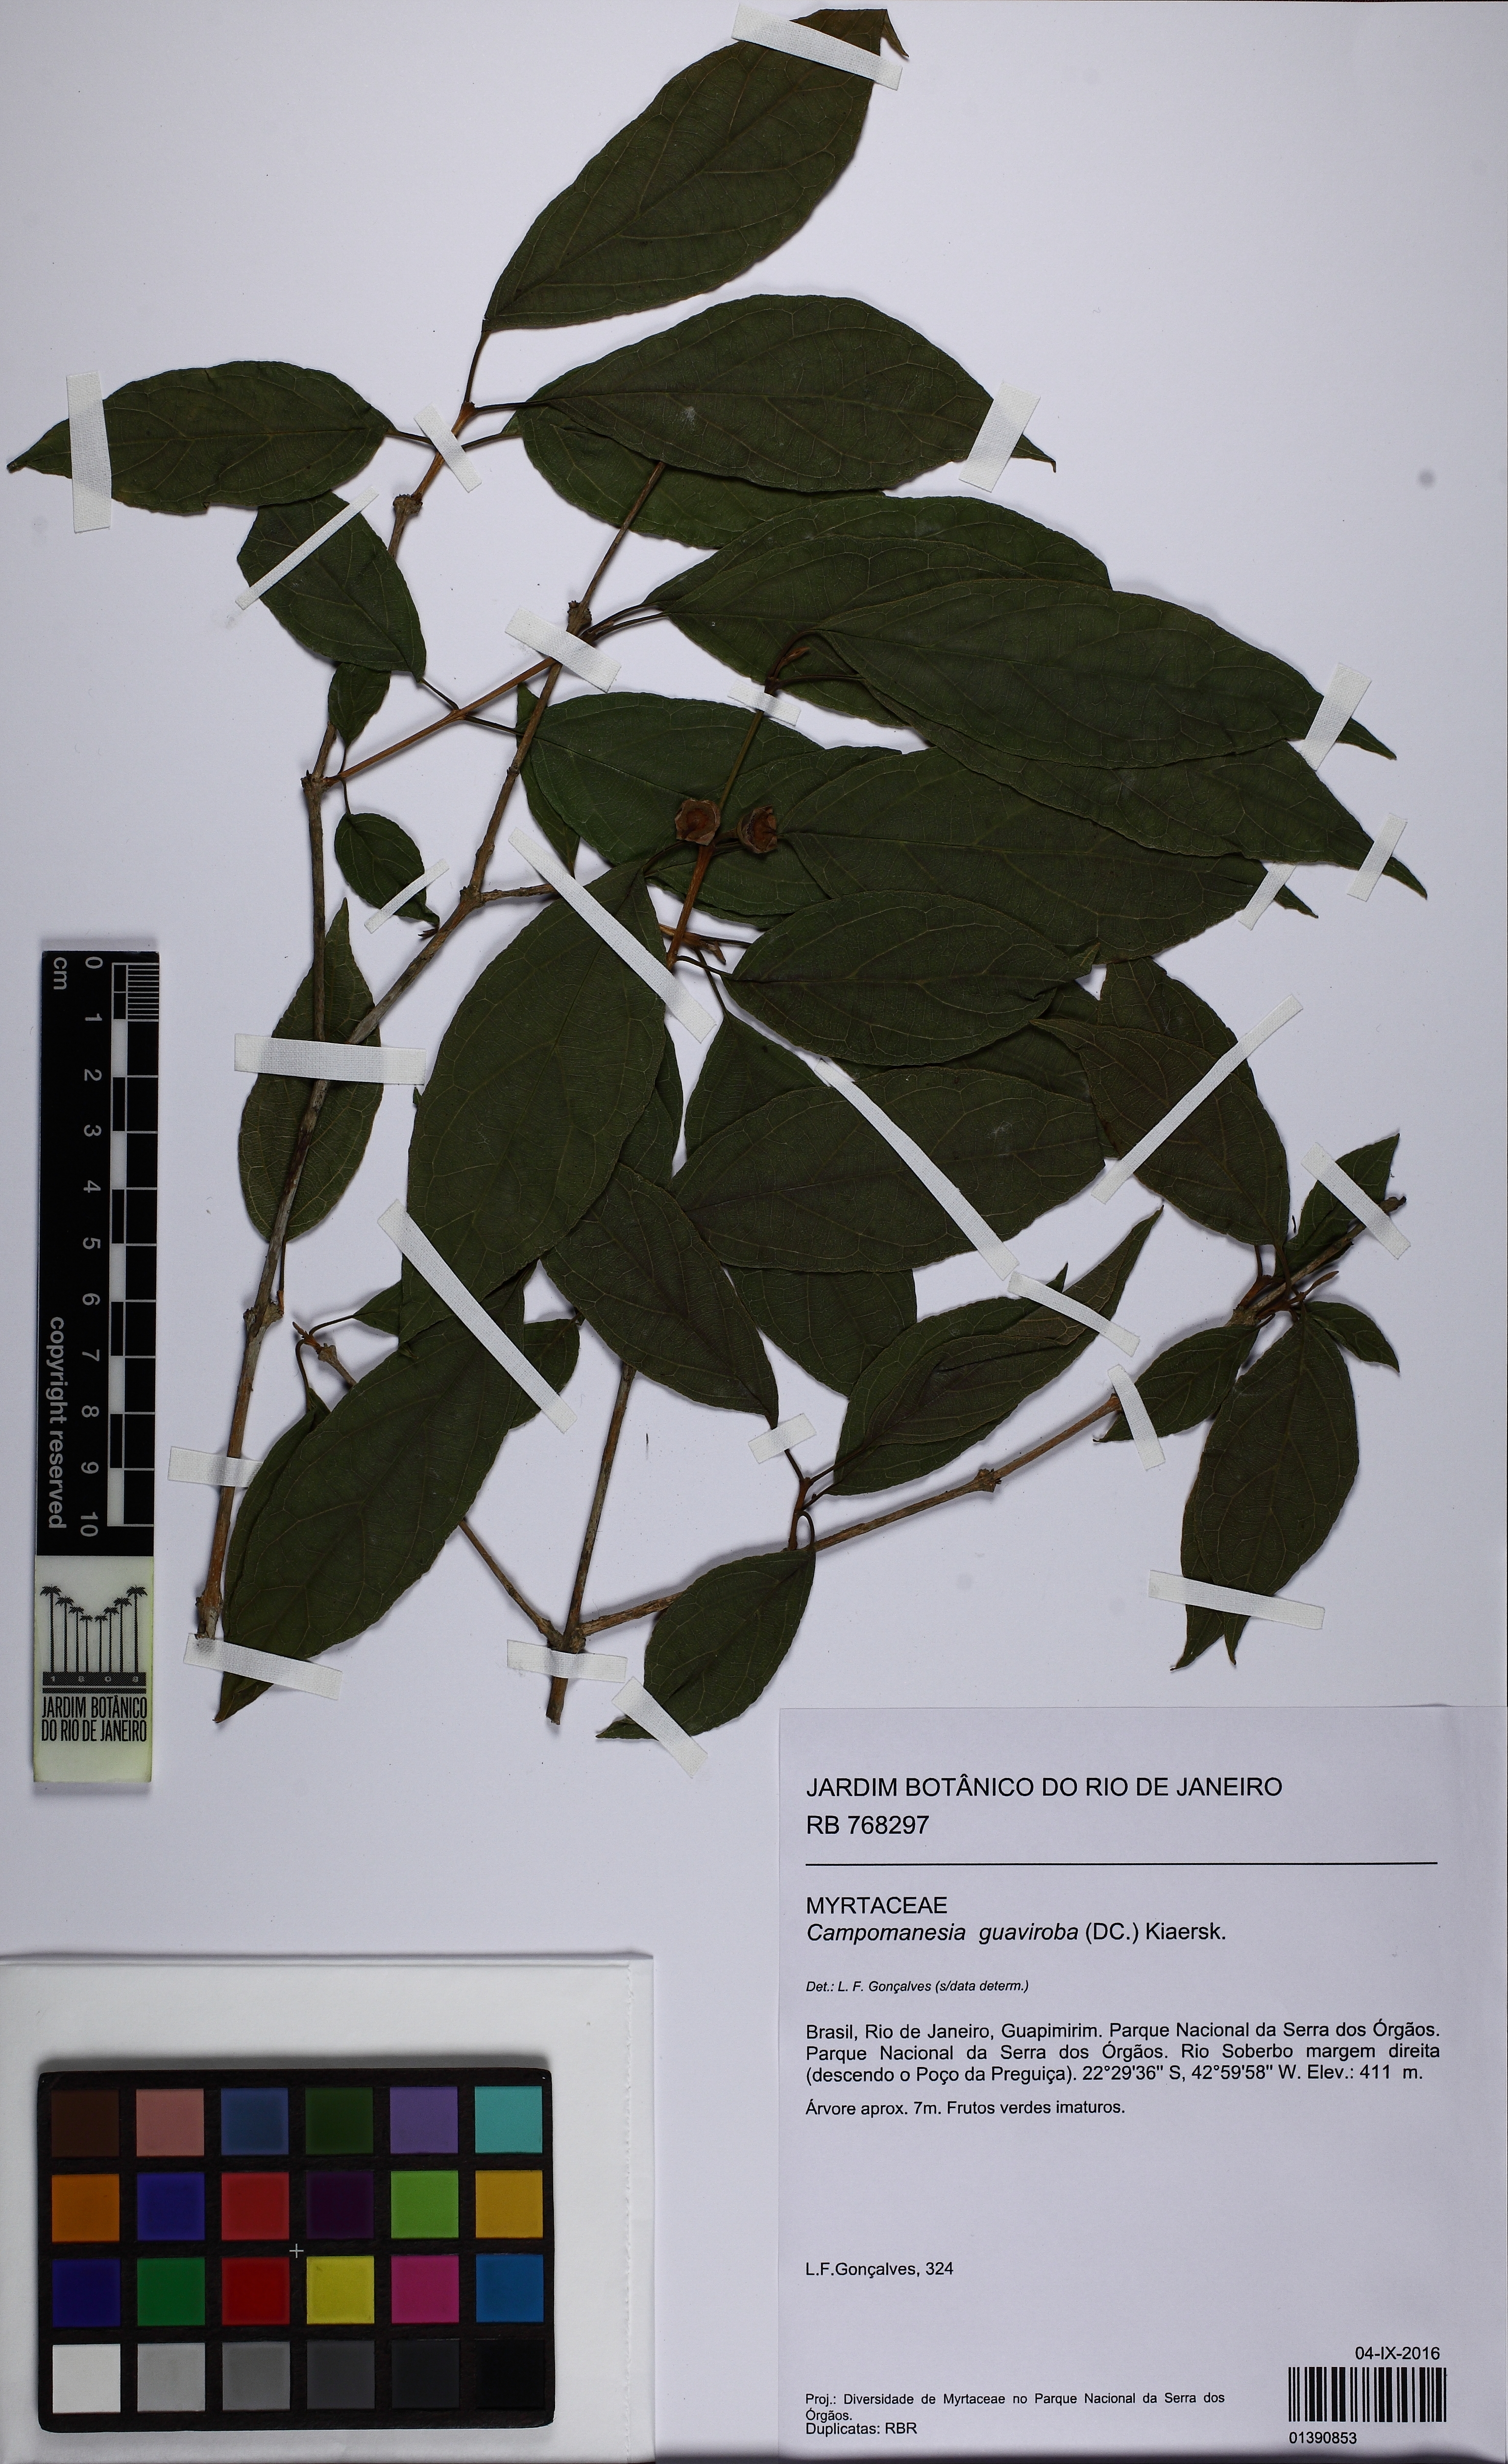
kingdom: Plantae
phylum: Tracheophyta
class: Magnoliopsida
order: Myrtales
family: Myrtaceae
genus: Campomanesia
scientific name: Campomanesia guaviroba
